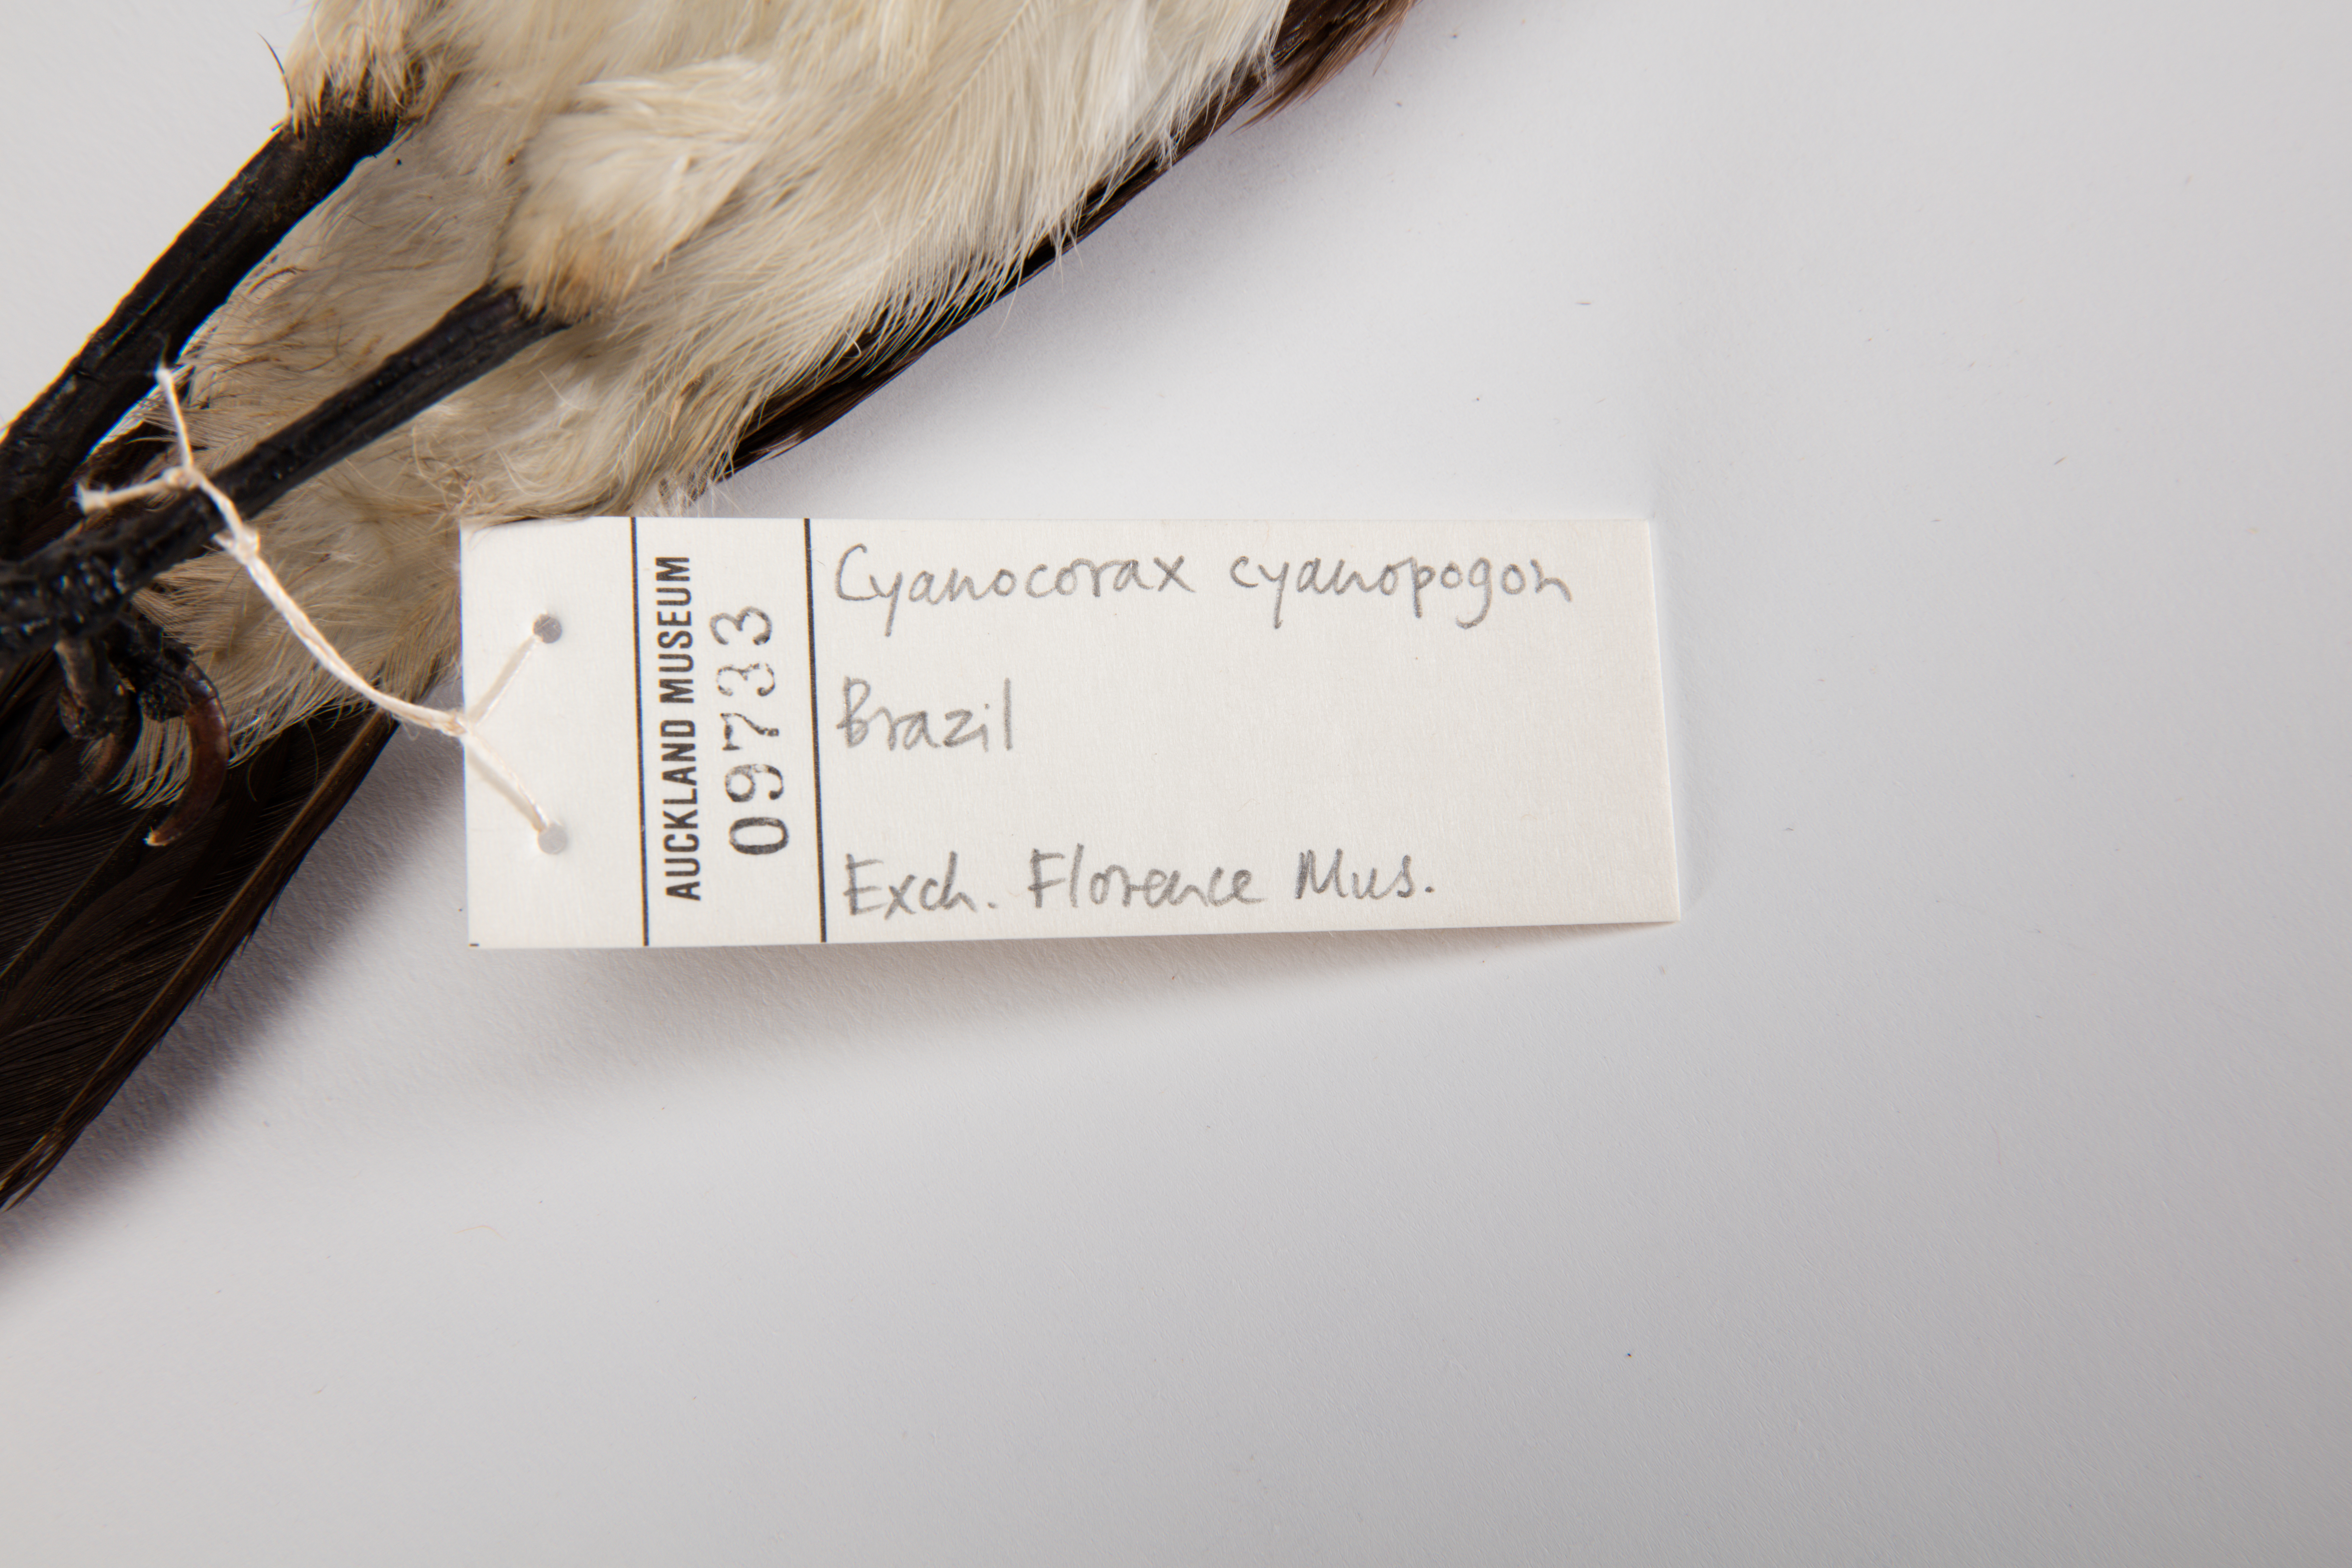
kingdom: Animalia
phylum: Chordata
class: Aves
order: Passeriformes
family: Corvidae
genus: Cyanocorax
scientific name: Cyanocorax cyanopogon
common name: White-naped jay
